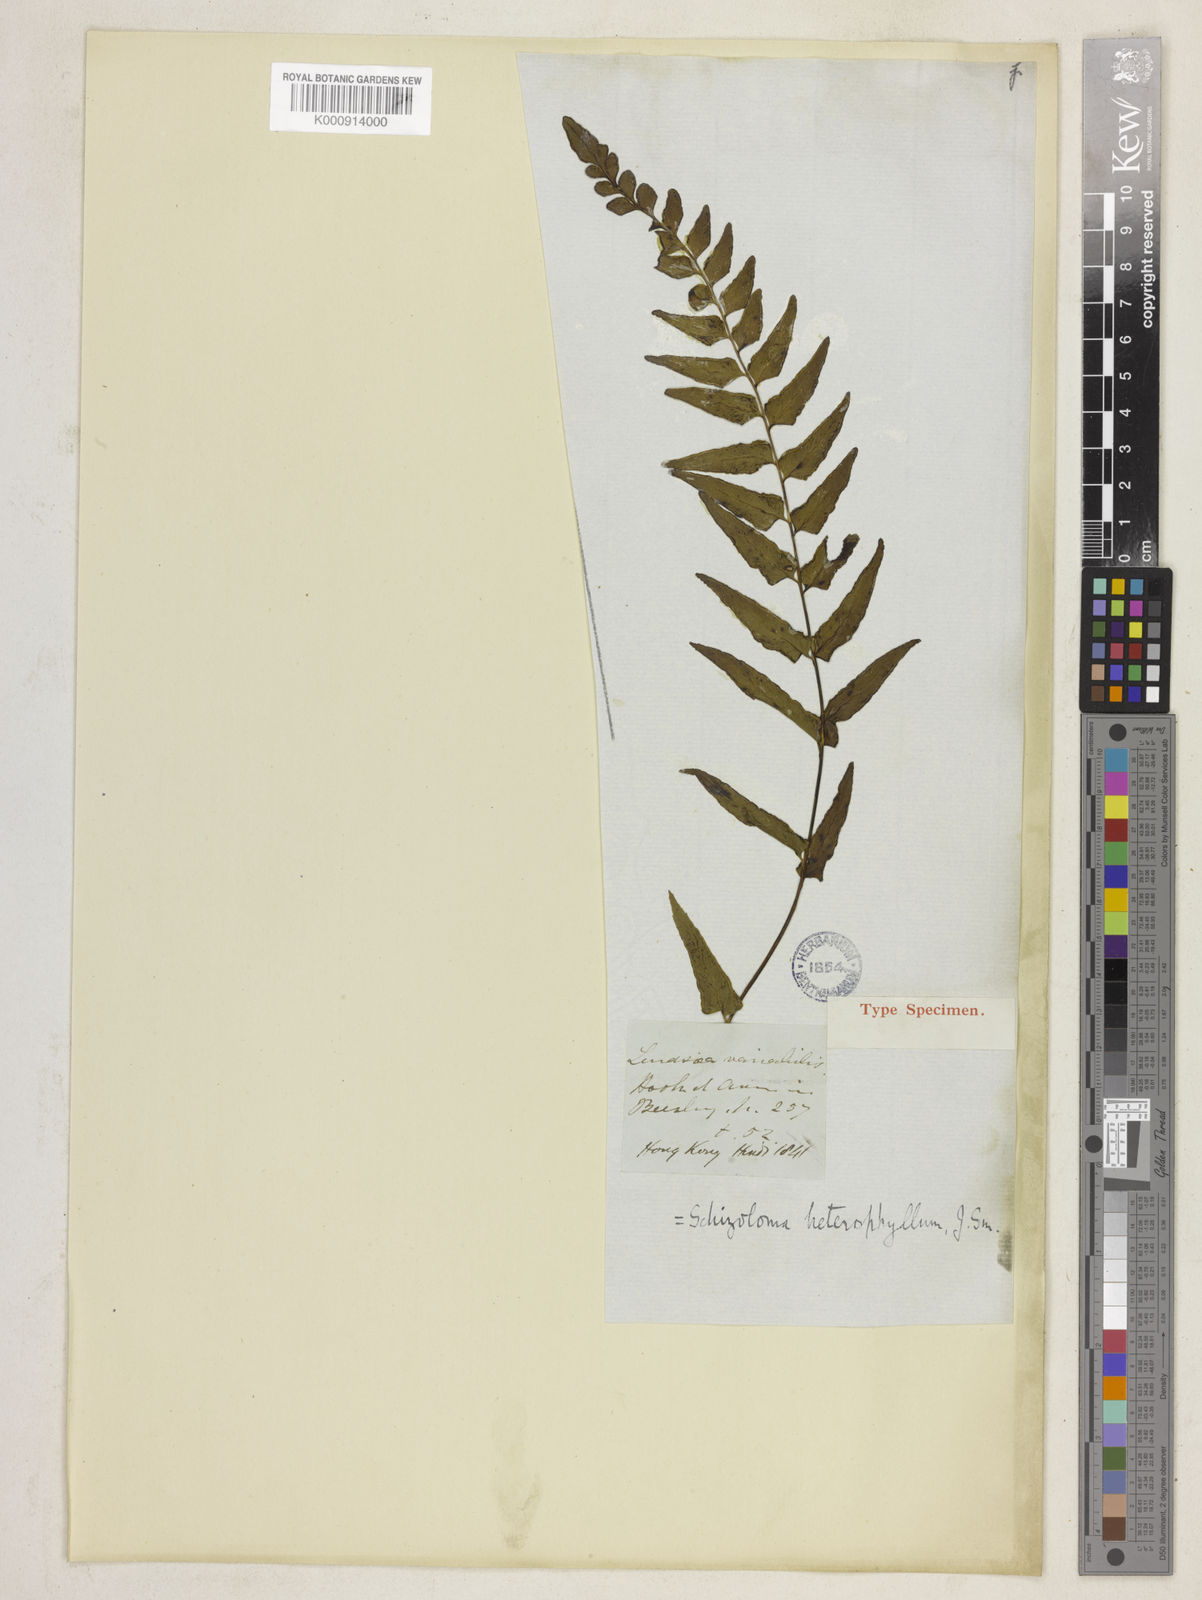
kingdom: Plantae
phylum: Tracheophyta
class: Polypodiopsida
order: Polypodiales
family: Lindsaeaceae
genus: Lindsaea
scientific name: Lindsaea heterophylla
